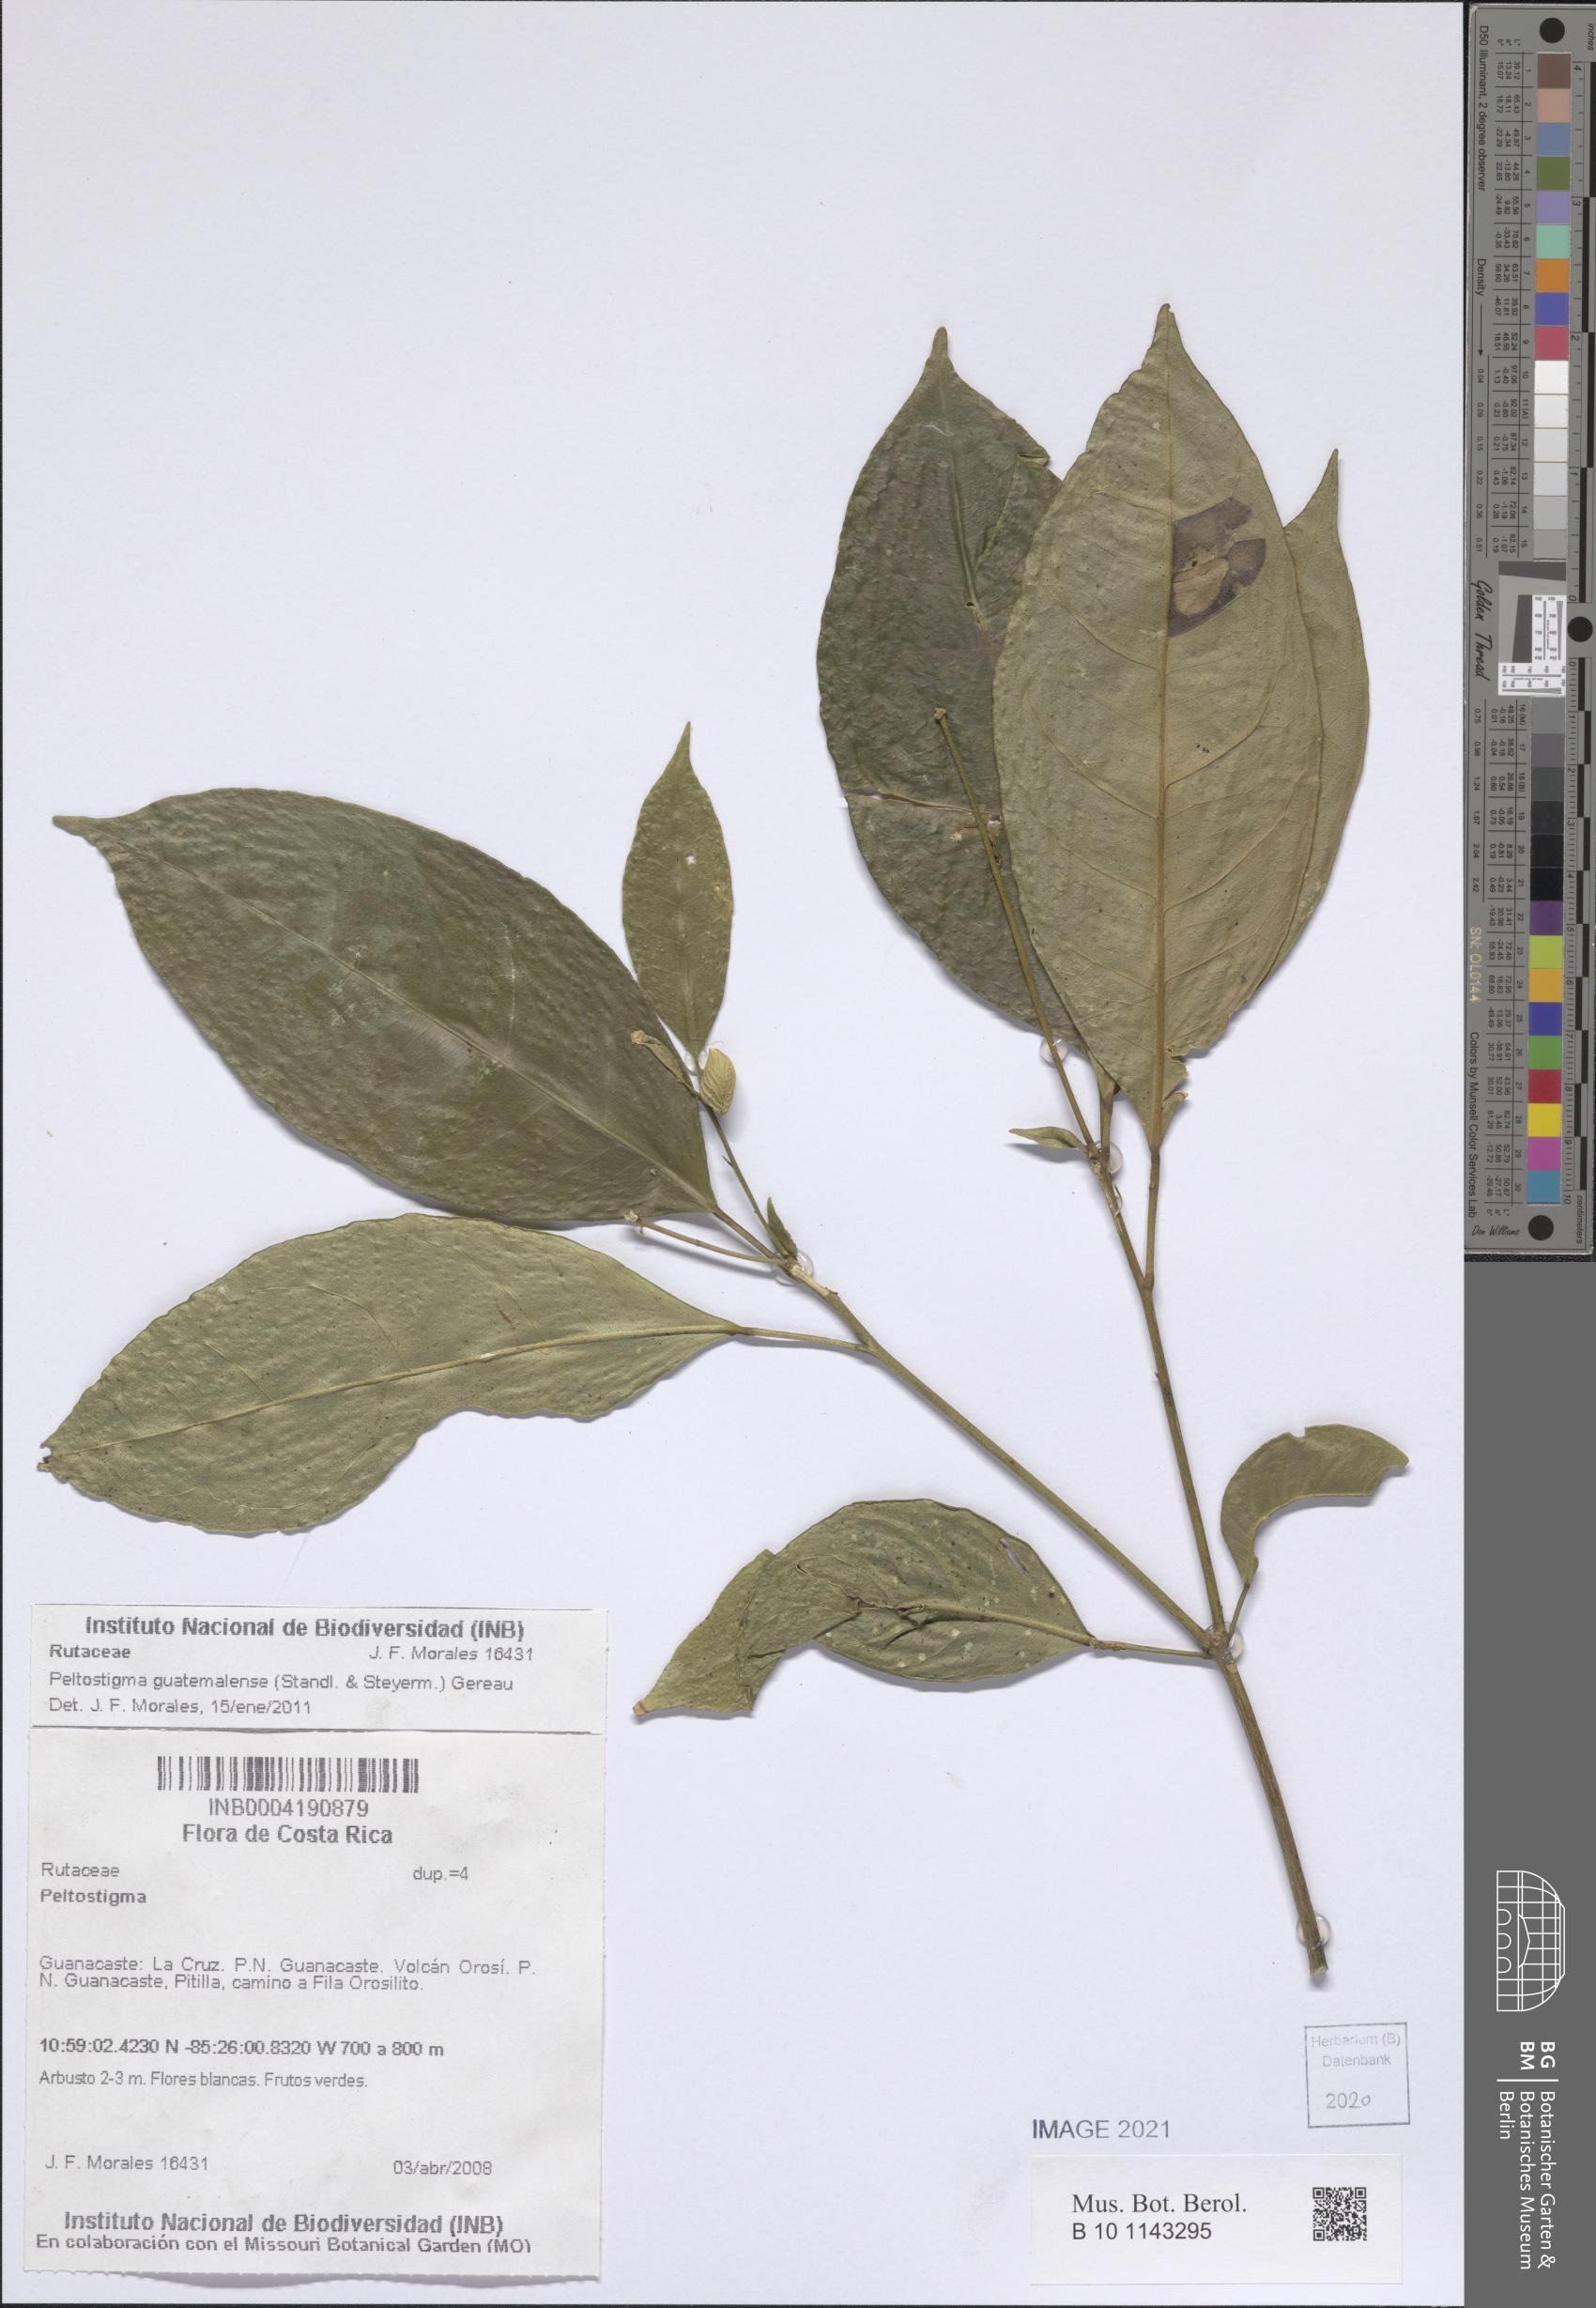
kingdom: Plantae
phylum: Tracheophyta
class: Magnoliopsida
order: Sapindales
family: Rutaceae
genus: Peltostigma
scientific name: Peltostigma guatemalense
